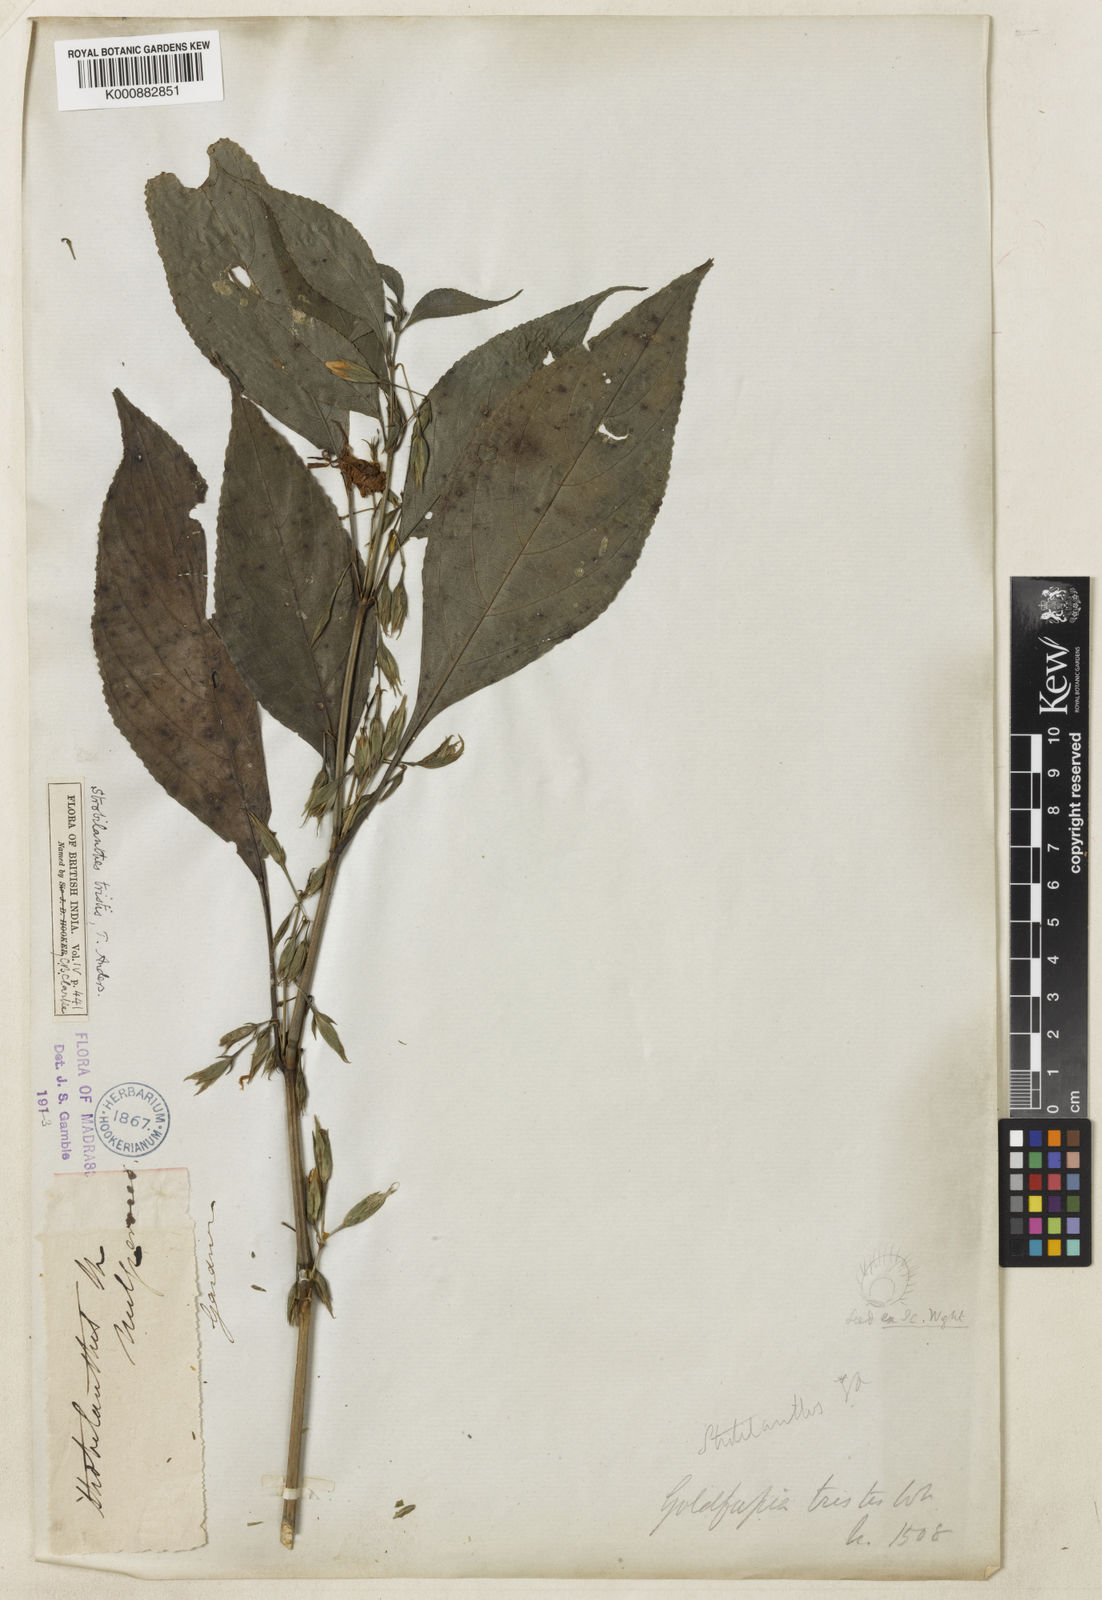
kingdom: Plantae
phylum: Tracheophyta
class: Magnoliopsida
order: Lamiales
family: Acanthaceae
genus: Strobilanthes
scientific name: Strobilanthes tristis
